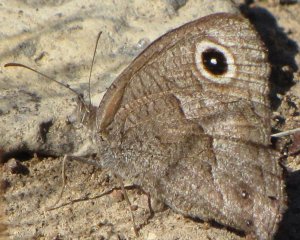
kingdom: Animalia
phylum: Arthropoda
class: Insecta
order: Lepidoptera
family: Nymphalidae
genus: Cercyonis
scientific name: Cercyonis sthenele
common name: Great Basin Wood-Nymph
